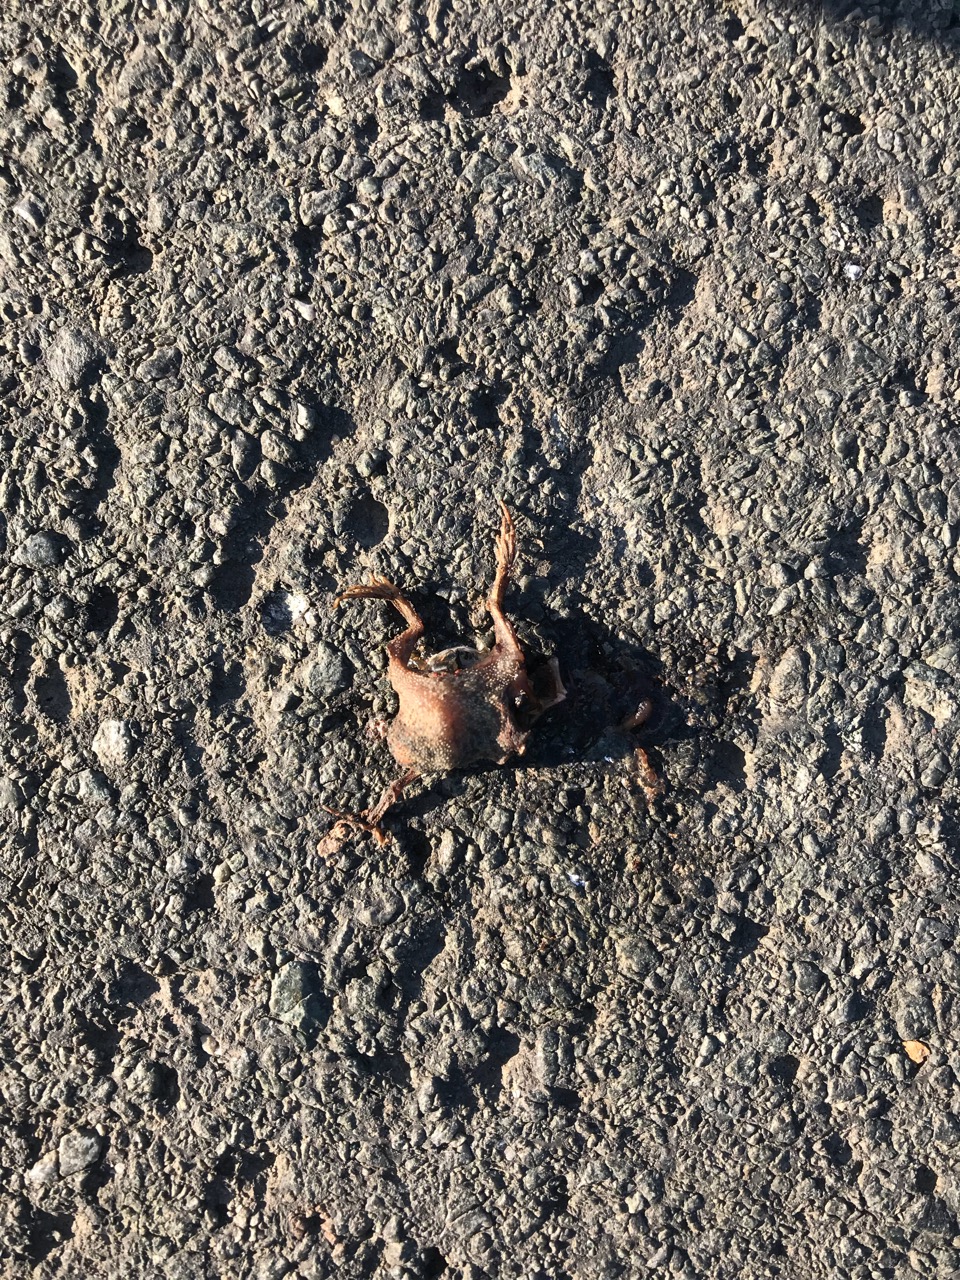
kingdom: Animalia
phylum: Chordata
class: Amphibia
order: Anura
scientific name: Anura
